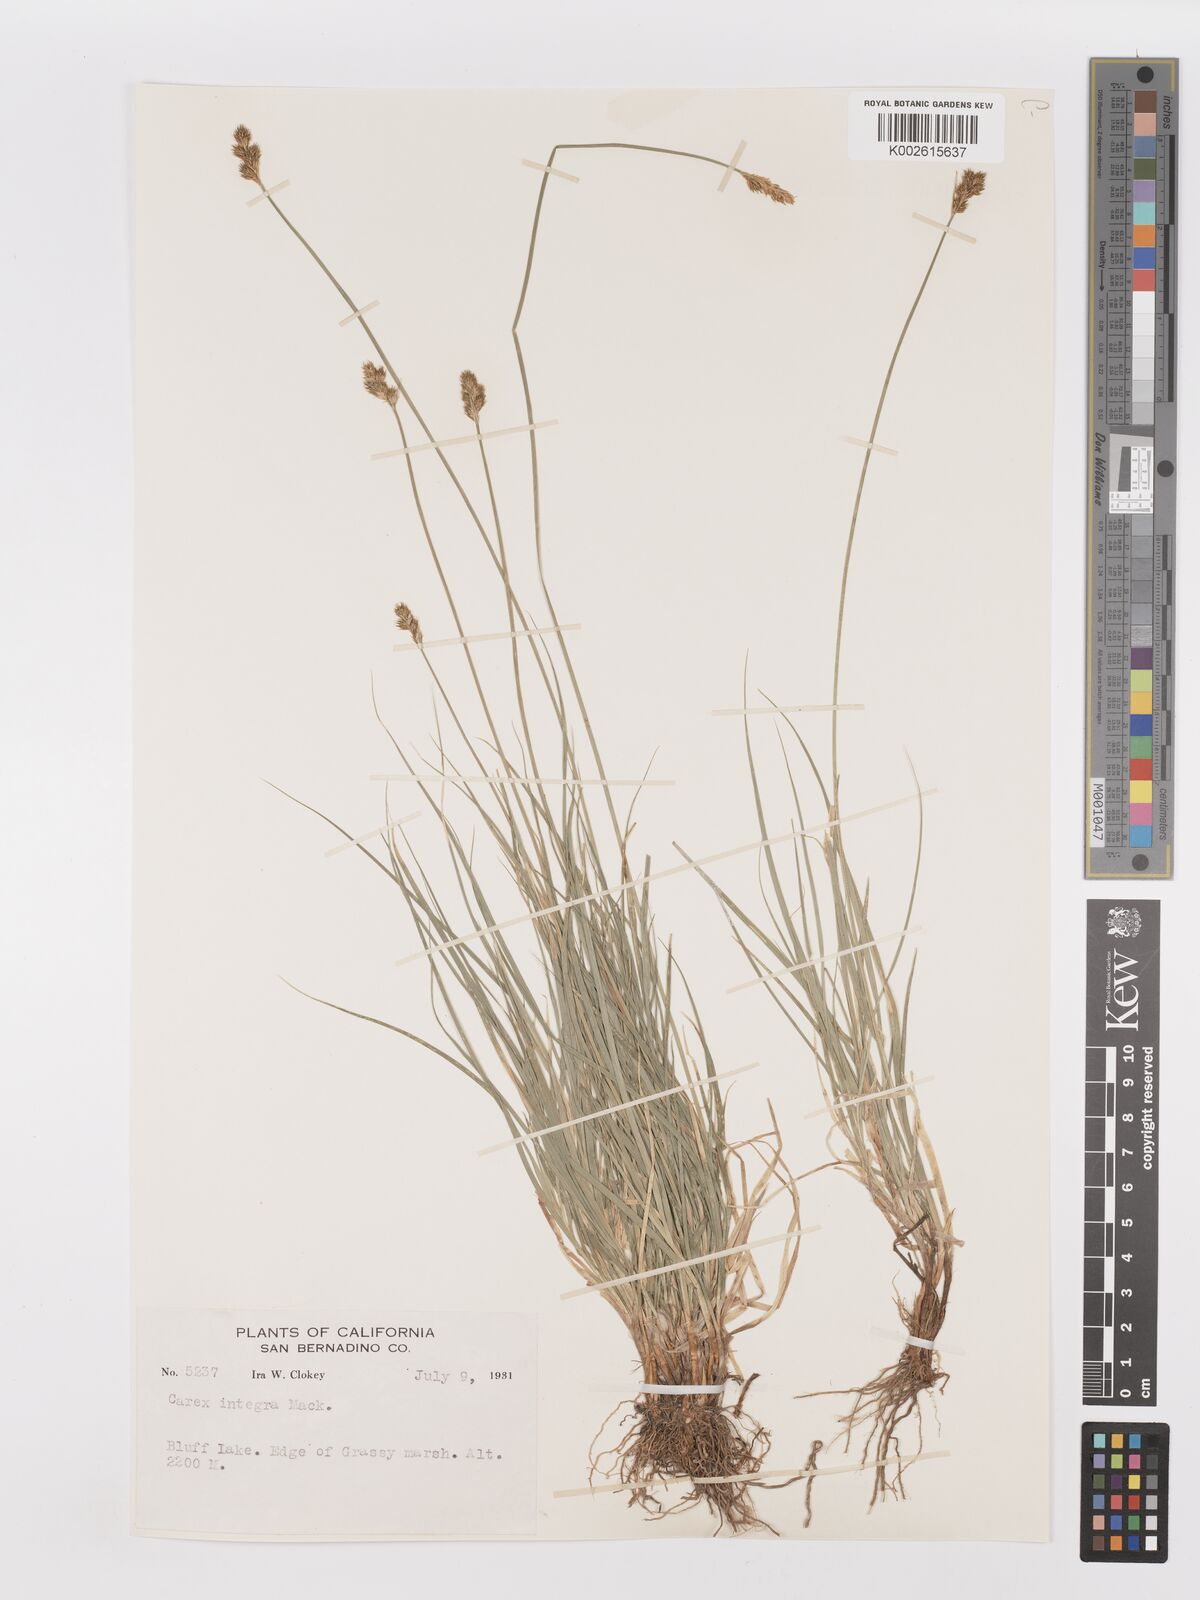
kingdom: Plantae
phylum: Tracheophyta
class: Liliopsida
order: Poales
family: Cyperaceae
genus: Carex
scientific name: Carex integra
